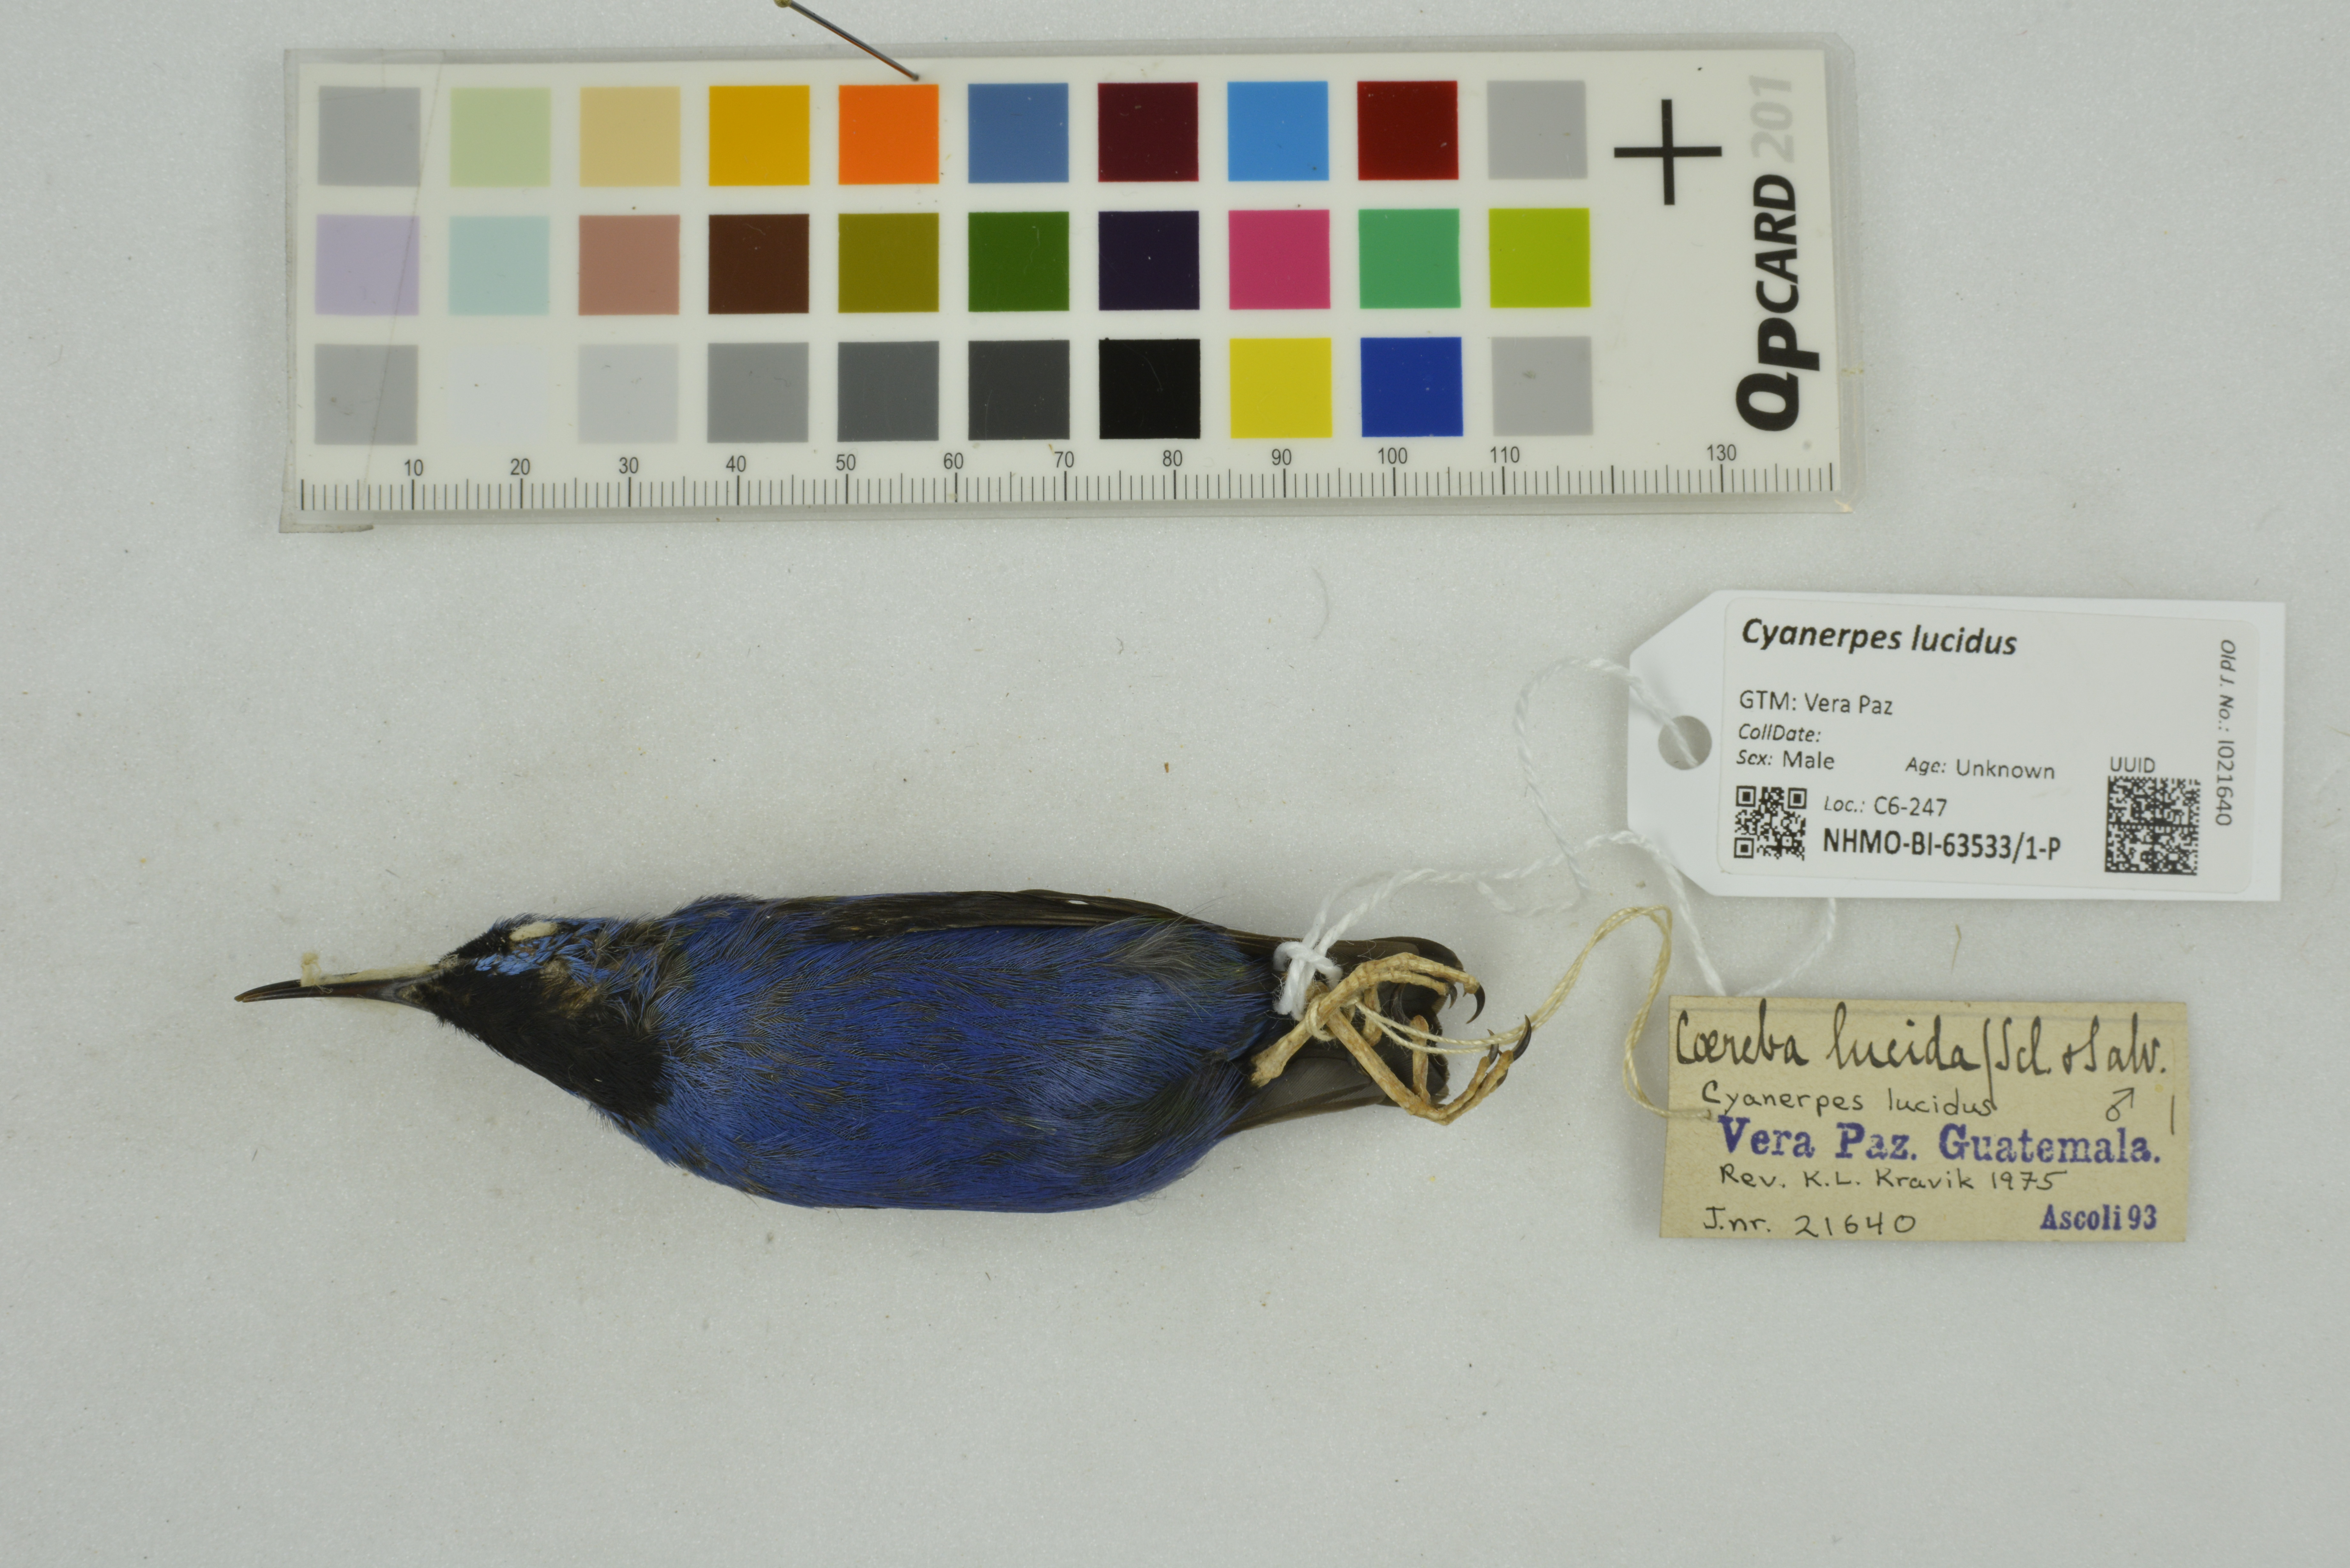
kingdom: Animalia
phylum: Chordata
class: Aves
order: Passeriformes
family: Thraupidae
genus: Cyanerpes
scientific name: Cyanerpes lucidus
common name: Shining honeycreeper
